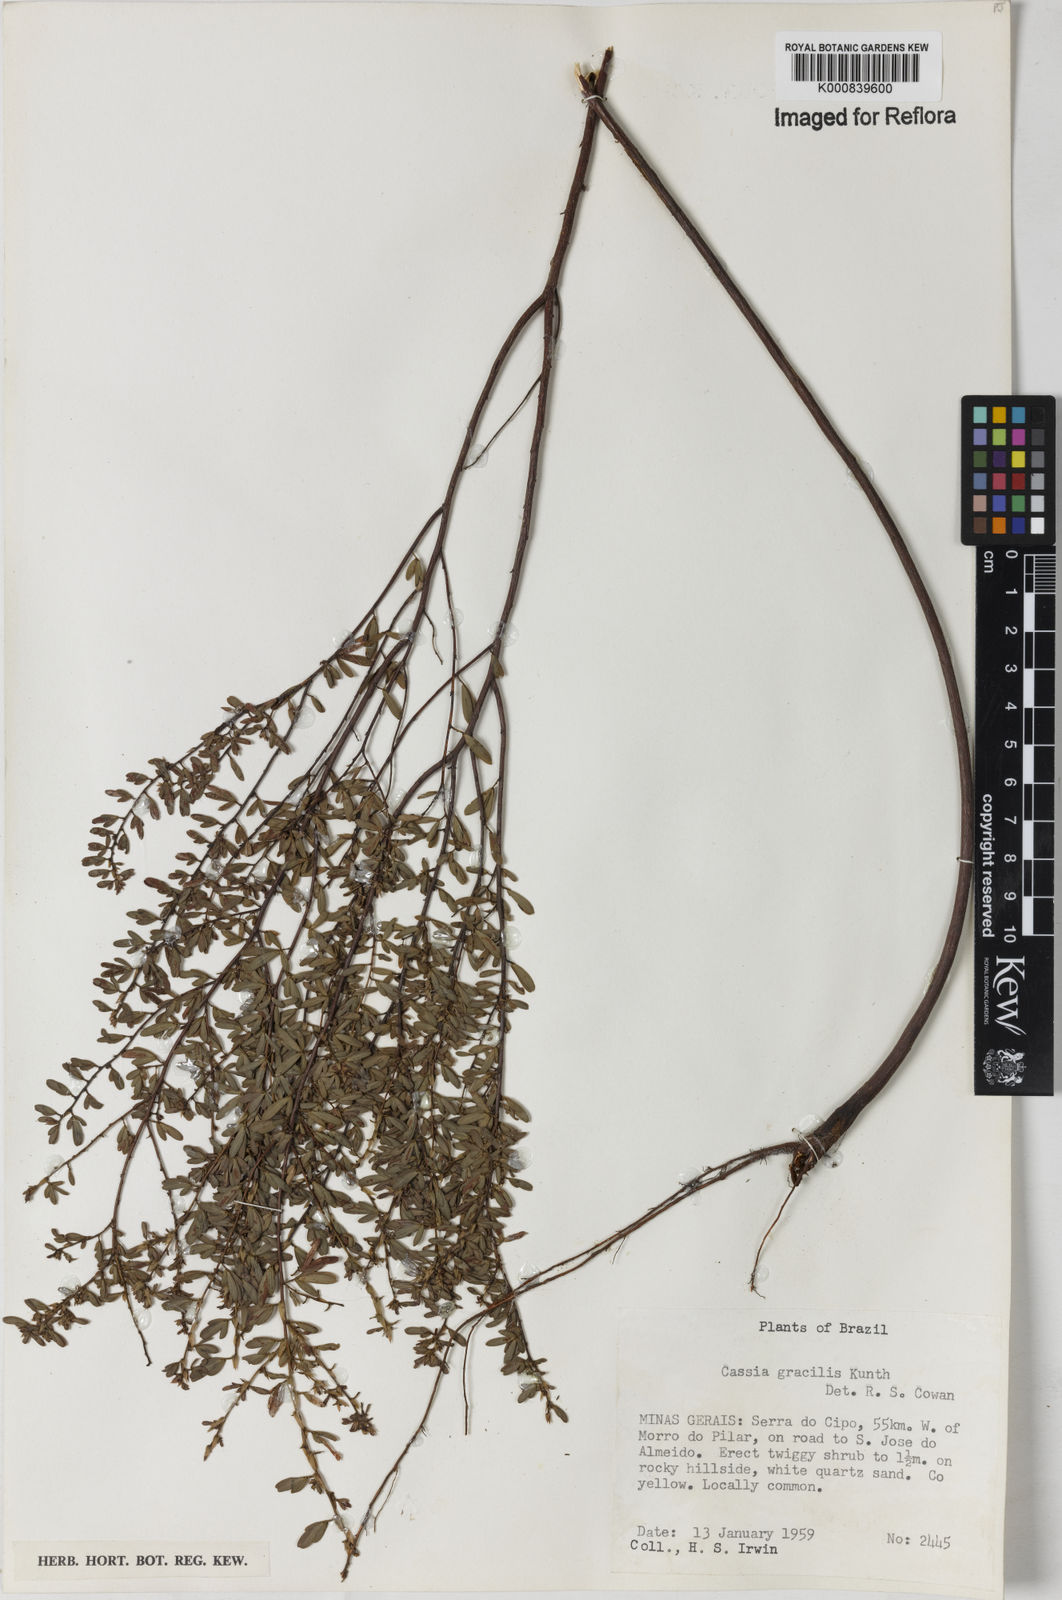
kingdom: Plantae
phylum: Tracheophyta
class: Magnoliopsida
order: Fabales
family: Fabaceae
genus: Chamaecrista
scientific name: Chamaecrista ramosa
